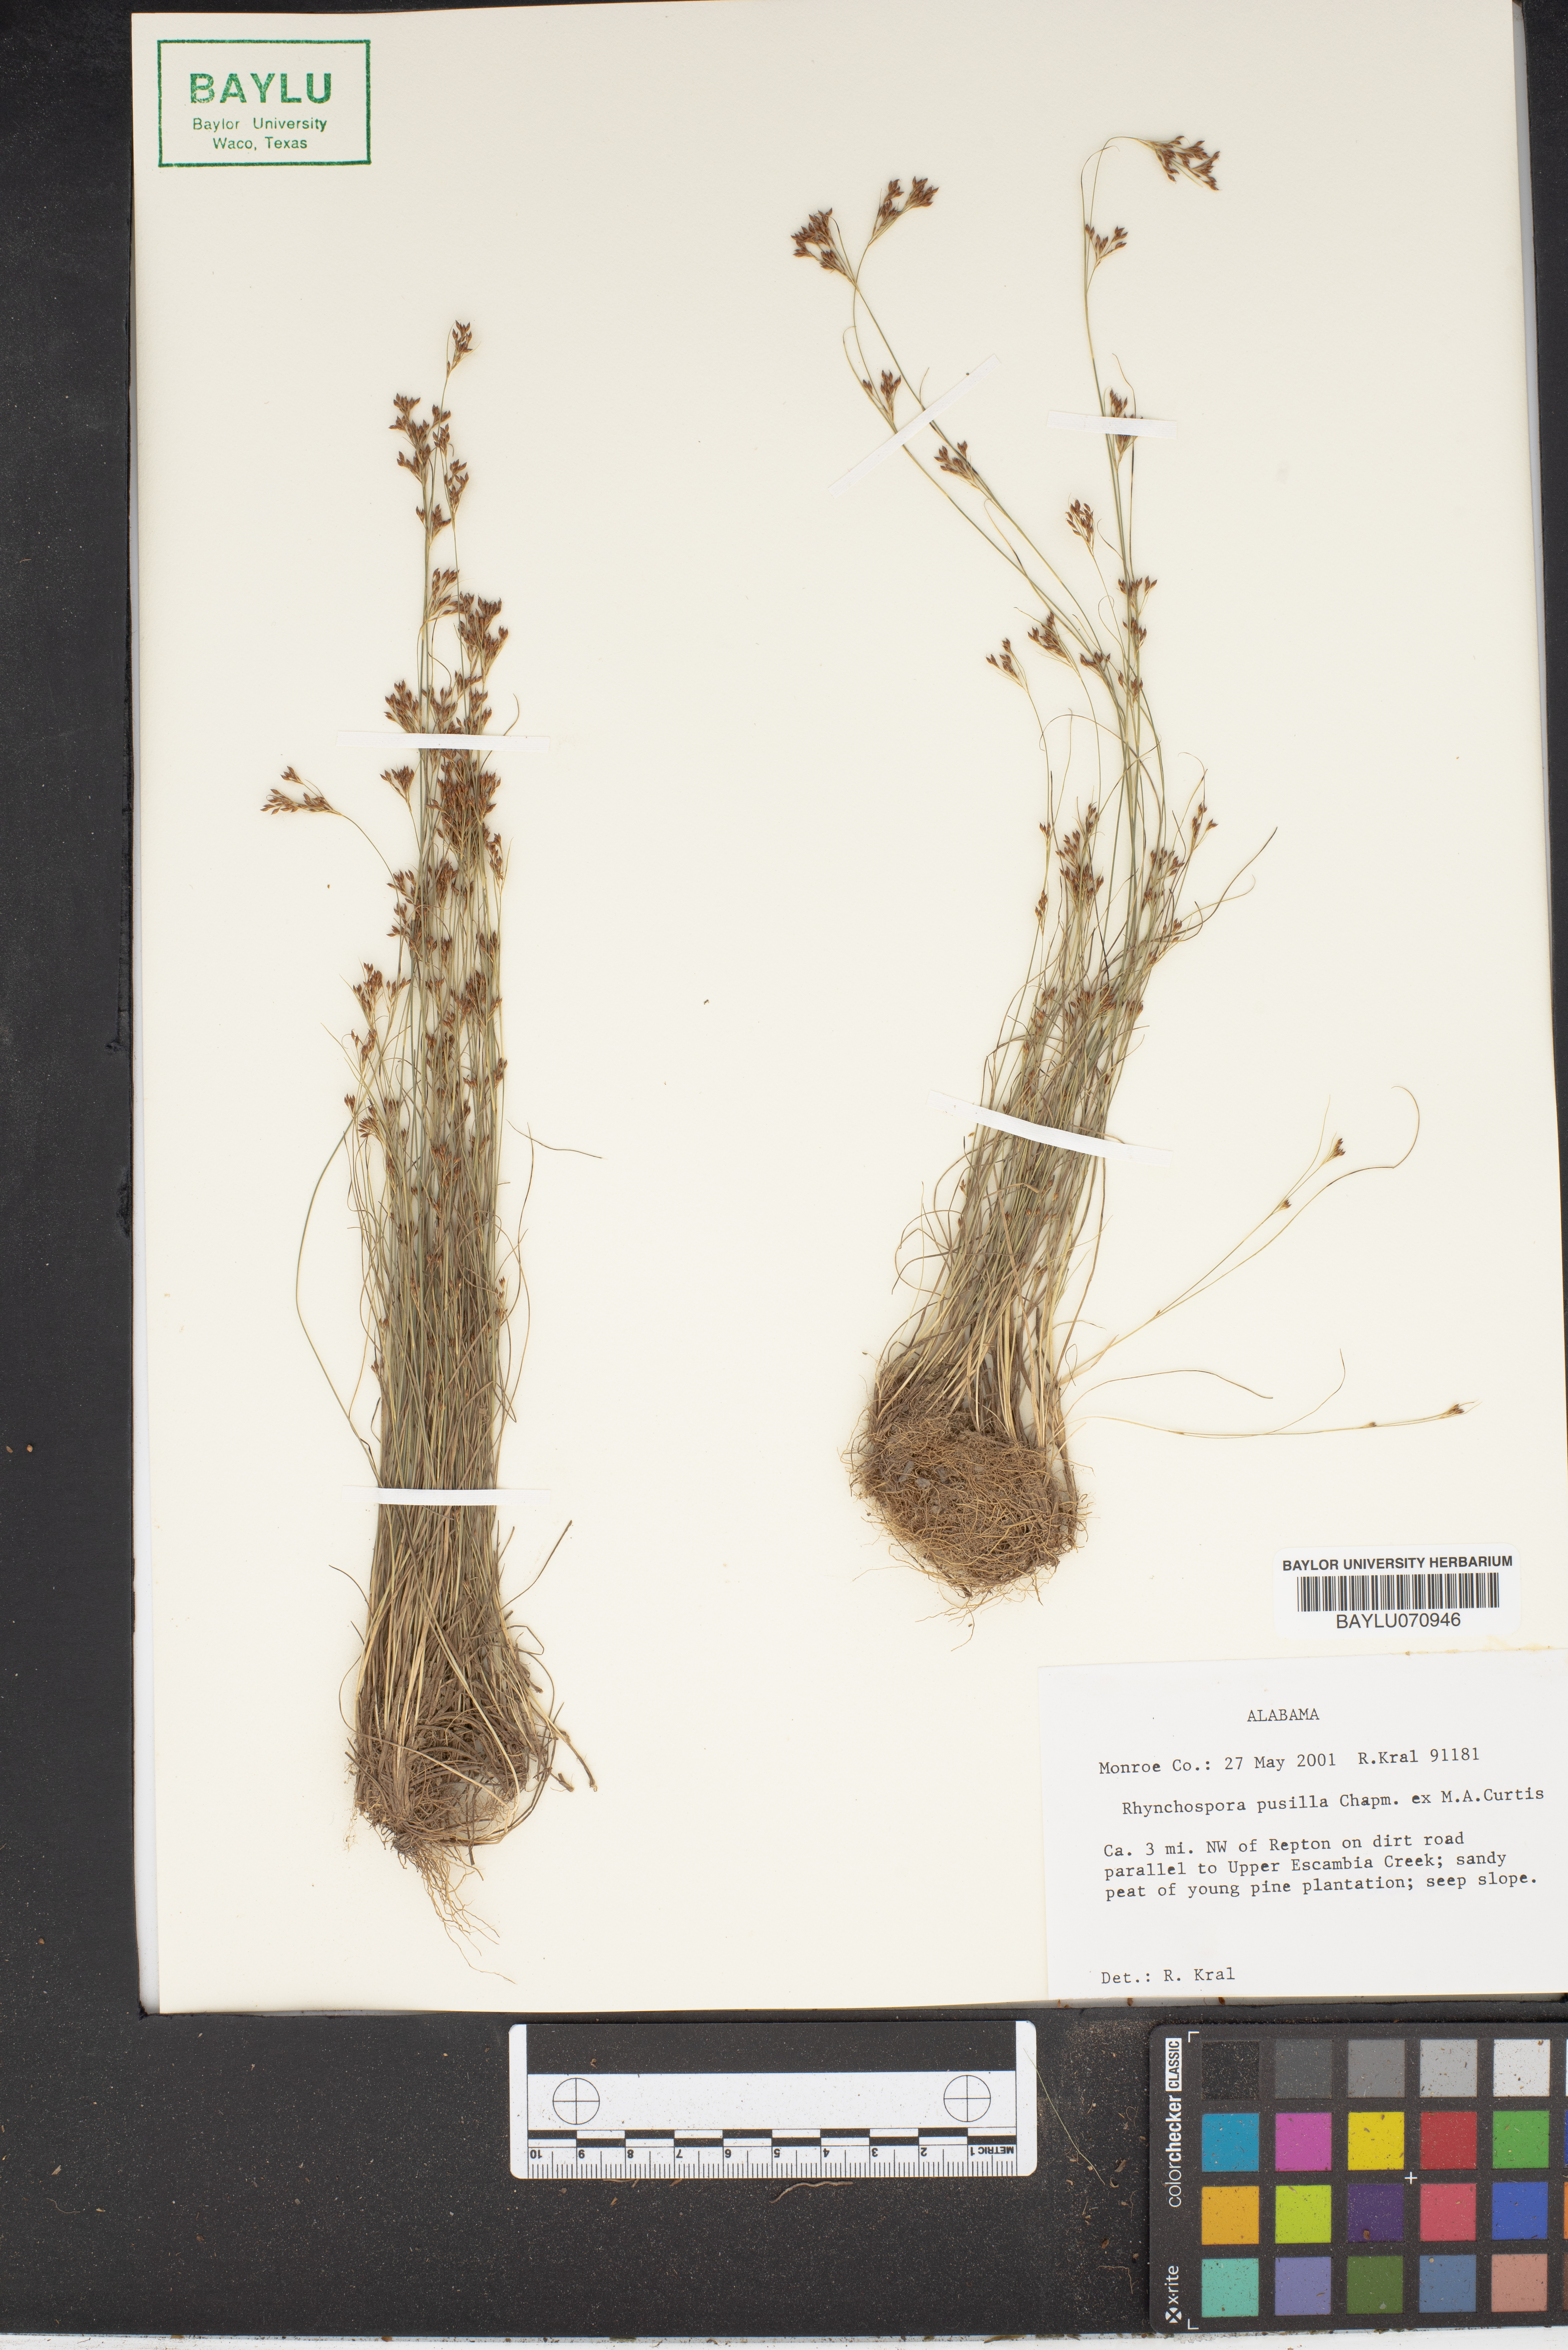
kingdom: Plantae
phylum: Tracheophyta
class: Liliopsida
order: Poales
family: Cyperaceae
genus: Rhynchospora
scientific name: Rhynchospora pusilla
